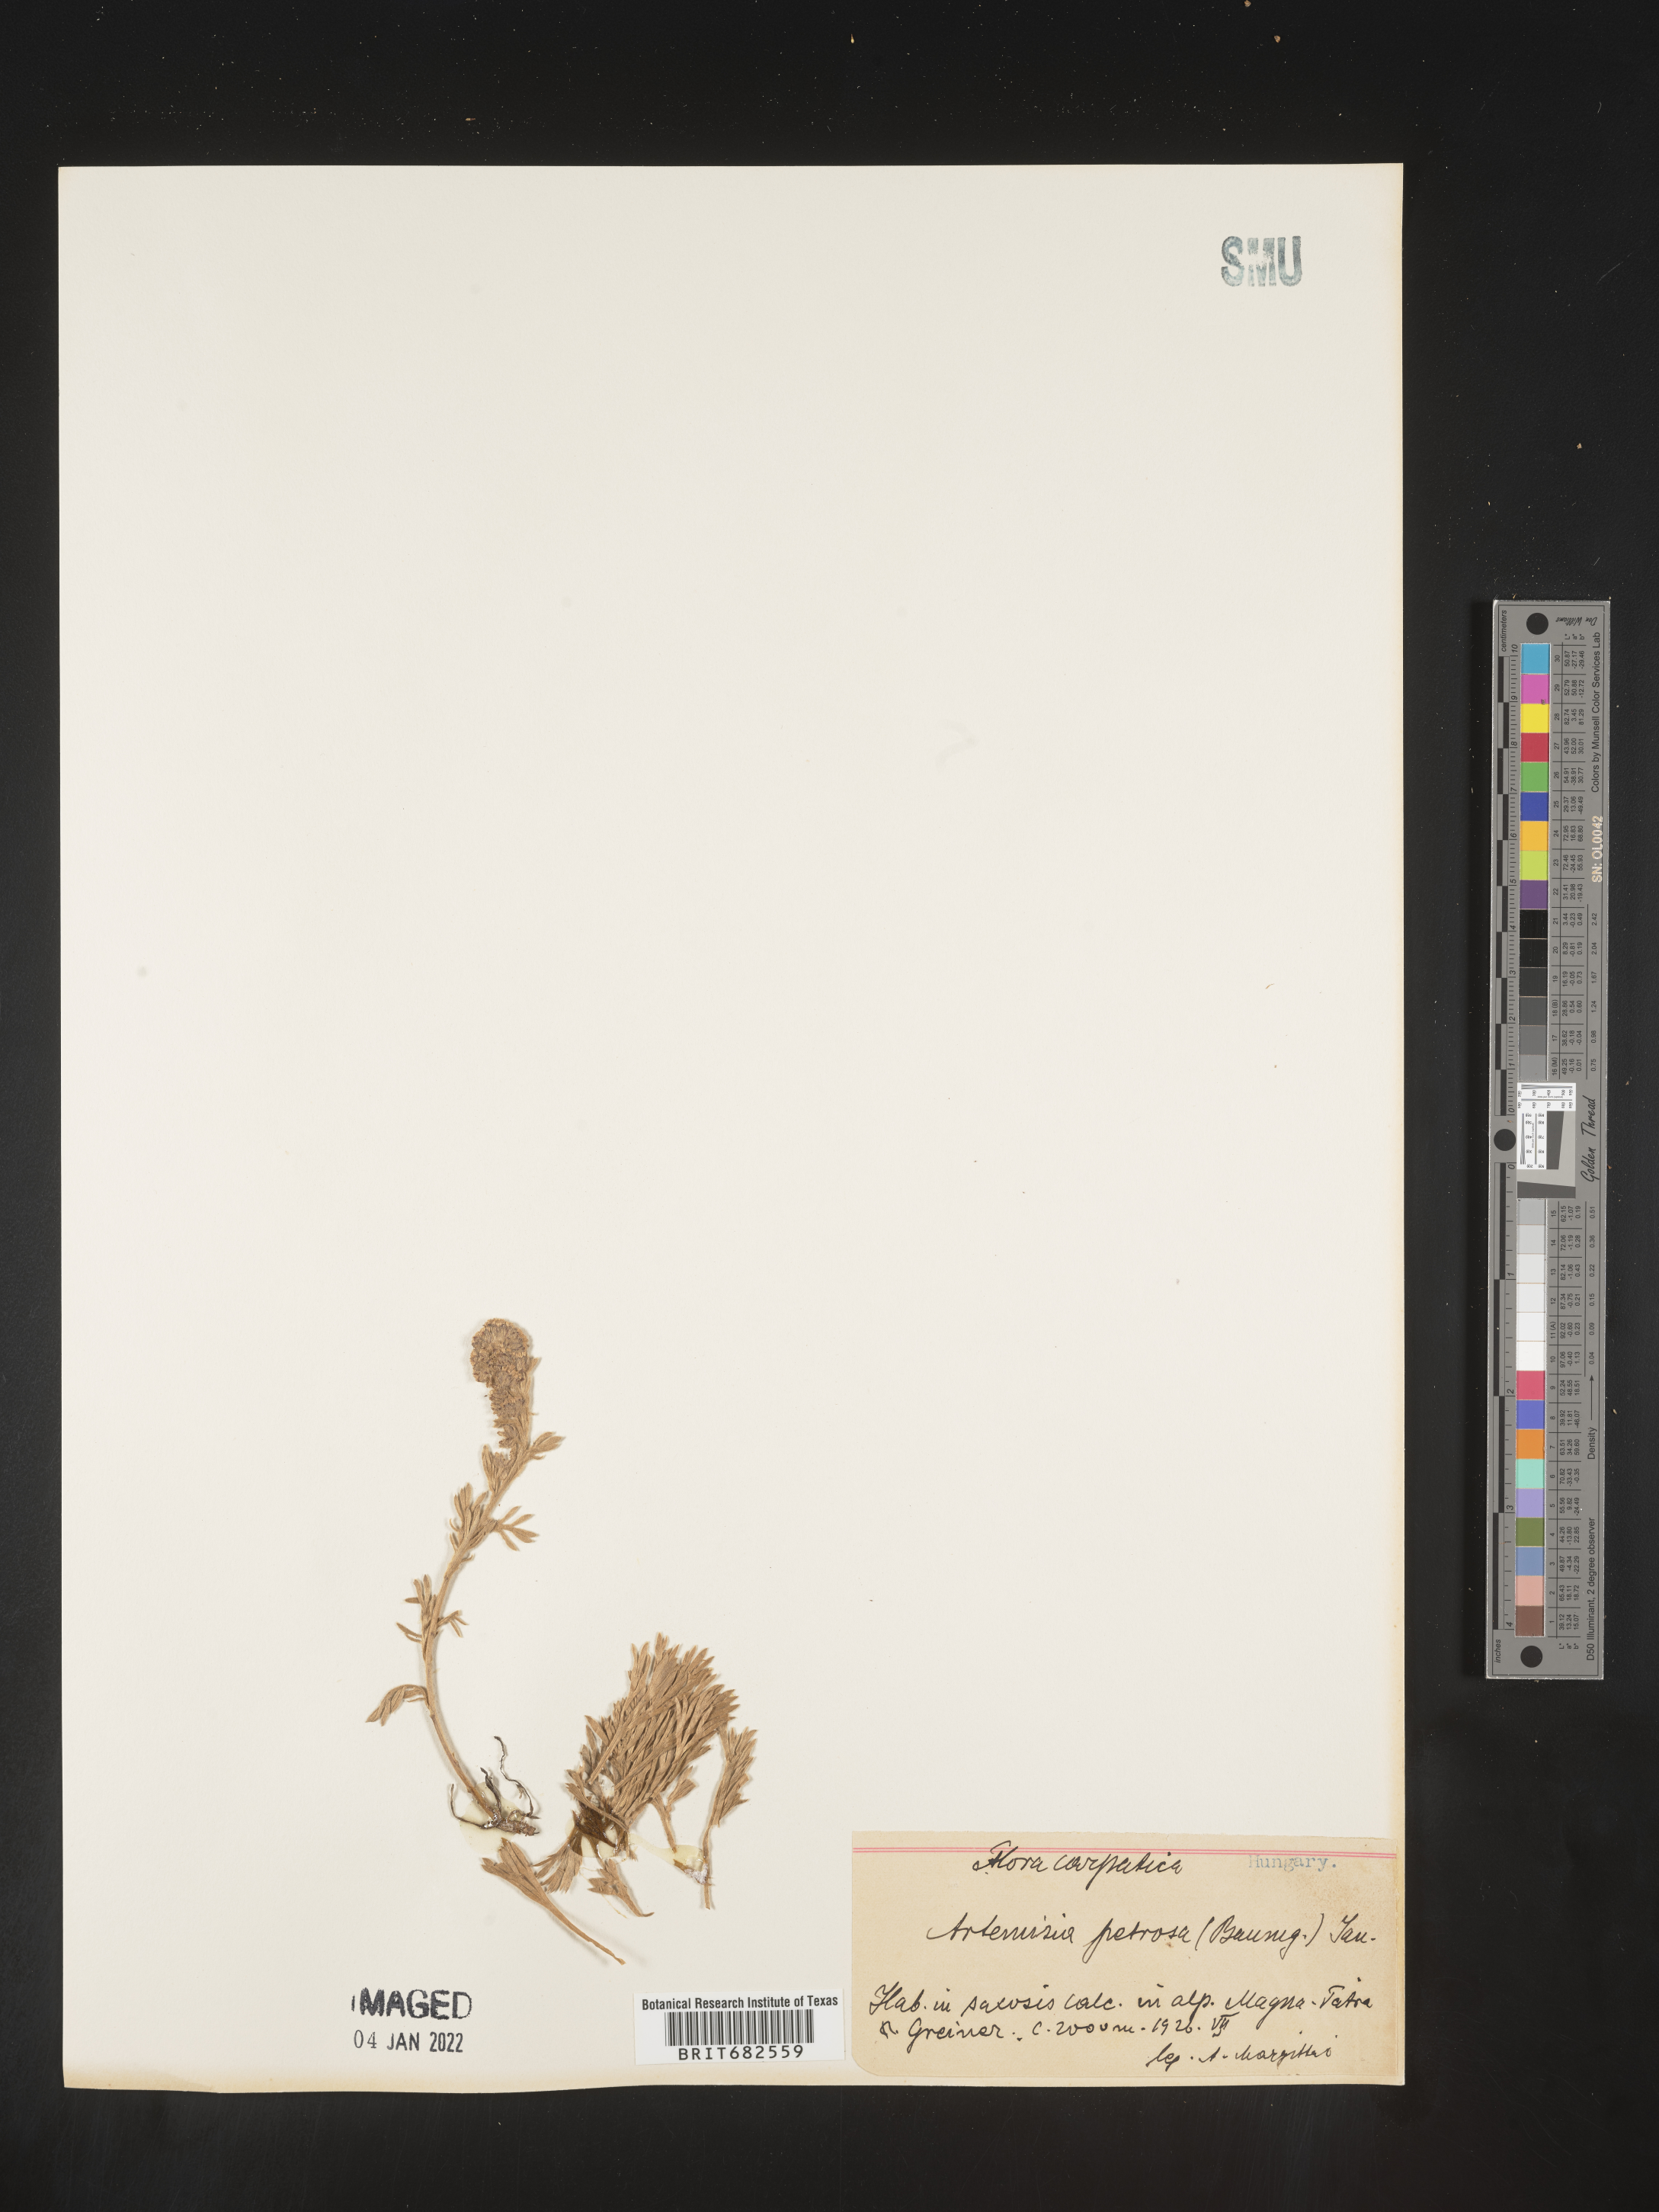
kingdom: Plantae
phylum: Tracheophyta
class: Magnoliopsida
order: Asterales
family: Asteraceae
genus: Artemisia
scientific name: Artemisia
